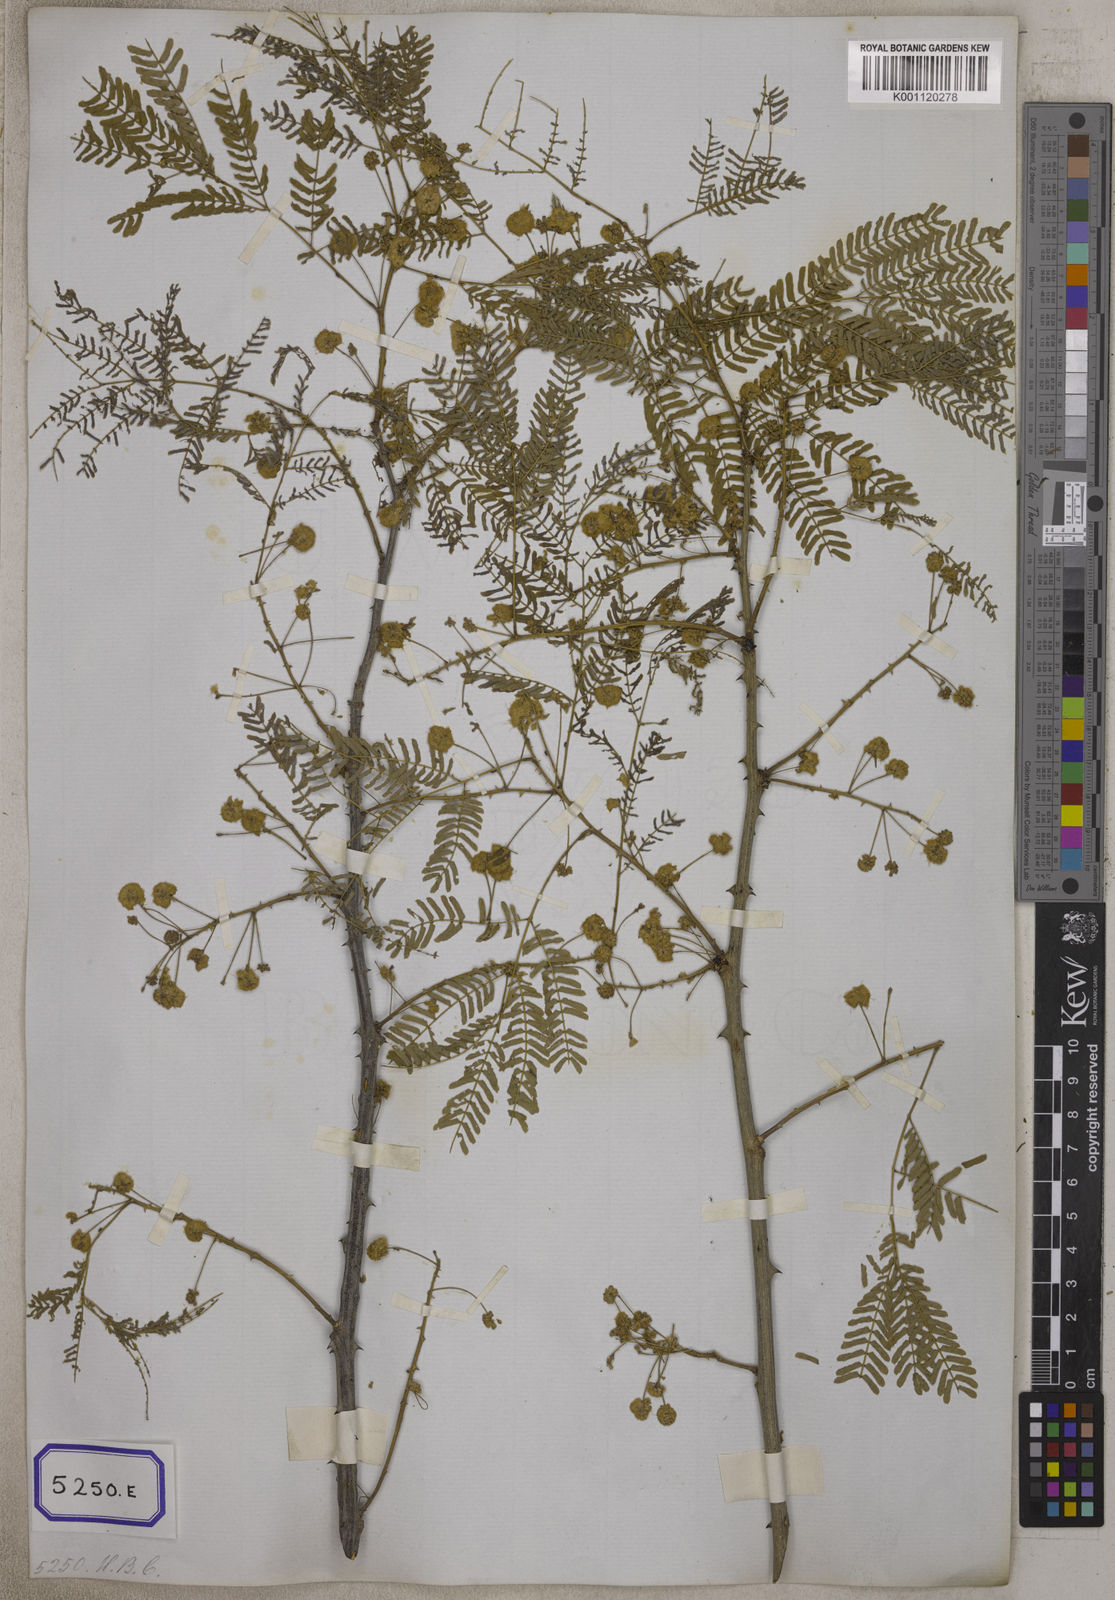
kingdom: Plantae
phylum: Tracheophyta
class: Magnoliopsida
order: Fabales
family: Fabaceae
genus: Senegalia
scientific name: Senegalia rugata
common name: Soap-pod
